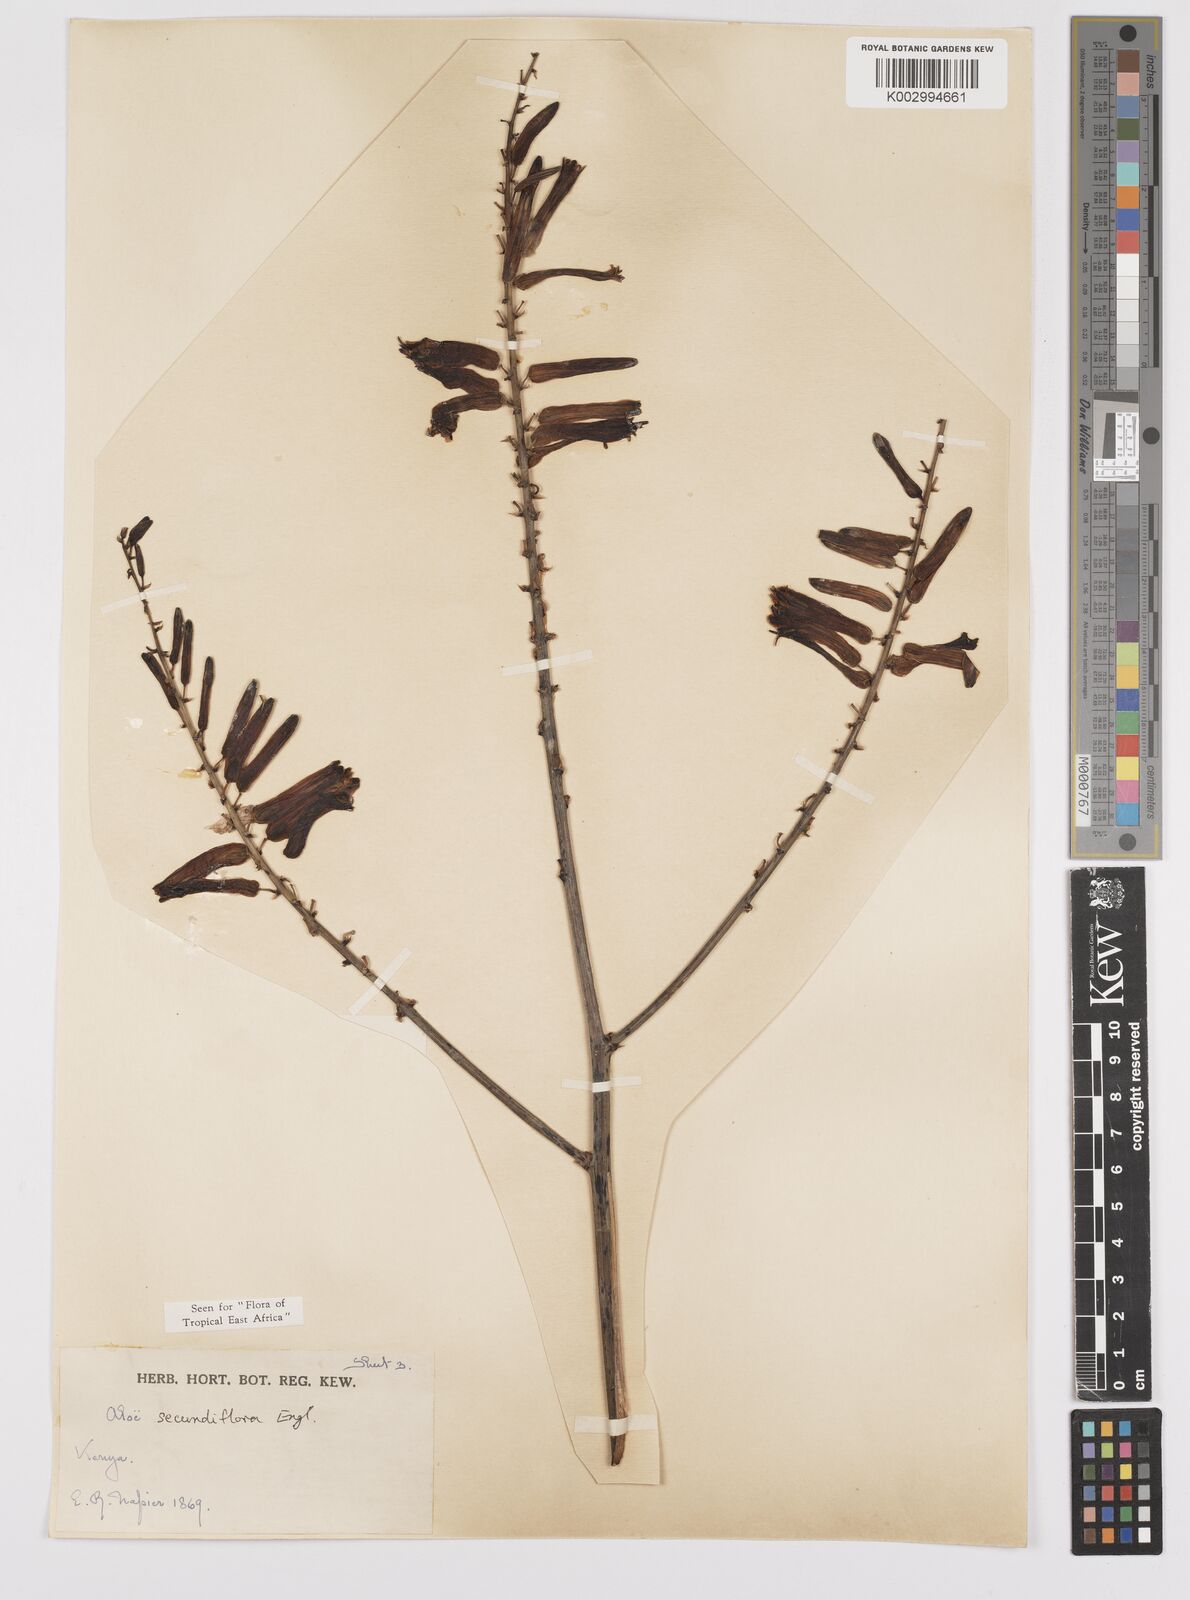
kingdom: Plantae
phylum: Tracheophyta
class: Liliopsida
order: Asparagales
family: Asphodelaceae
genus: Aloe
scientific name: Aloe secundiflora
